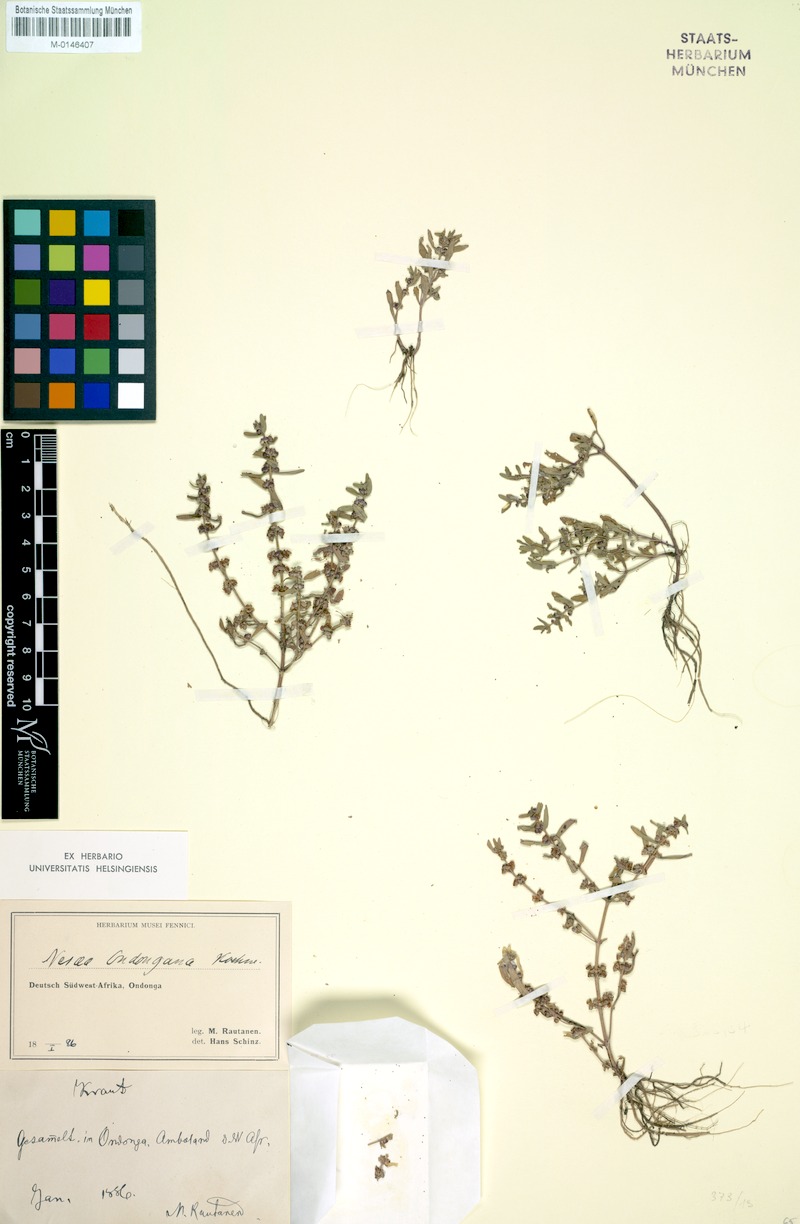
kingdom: Plantae
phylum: Tracheophyta
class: Magnoliopsida
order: Myrtales
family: Lythraceae
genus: Ammannia
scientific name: Ammannia senegalensis
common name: Red ammannia
